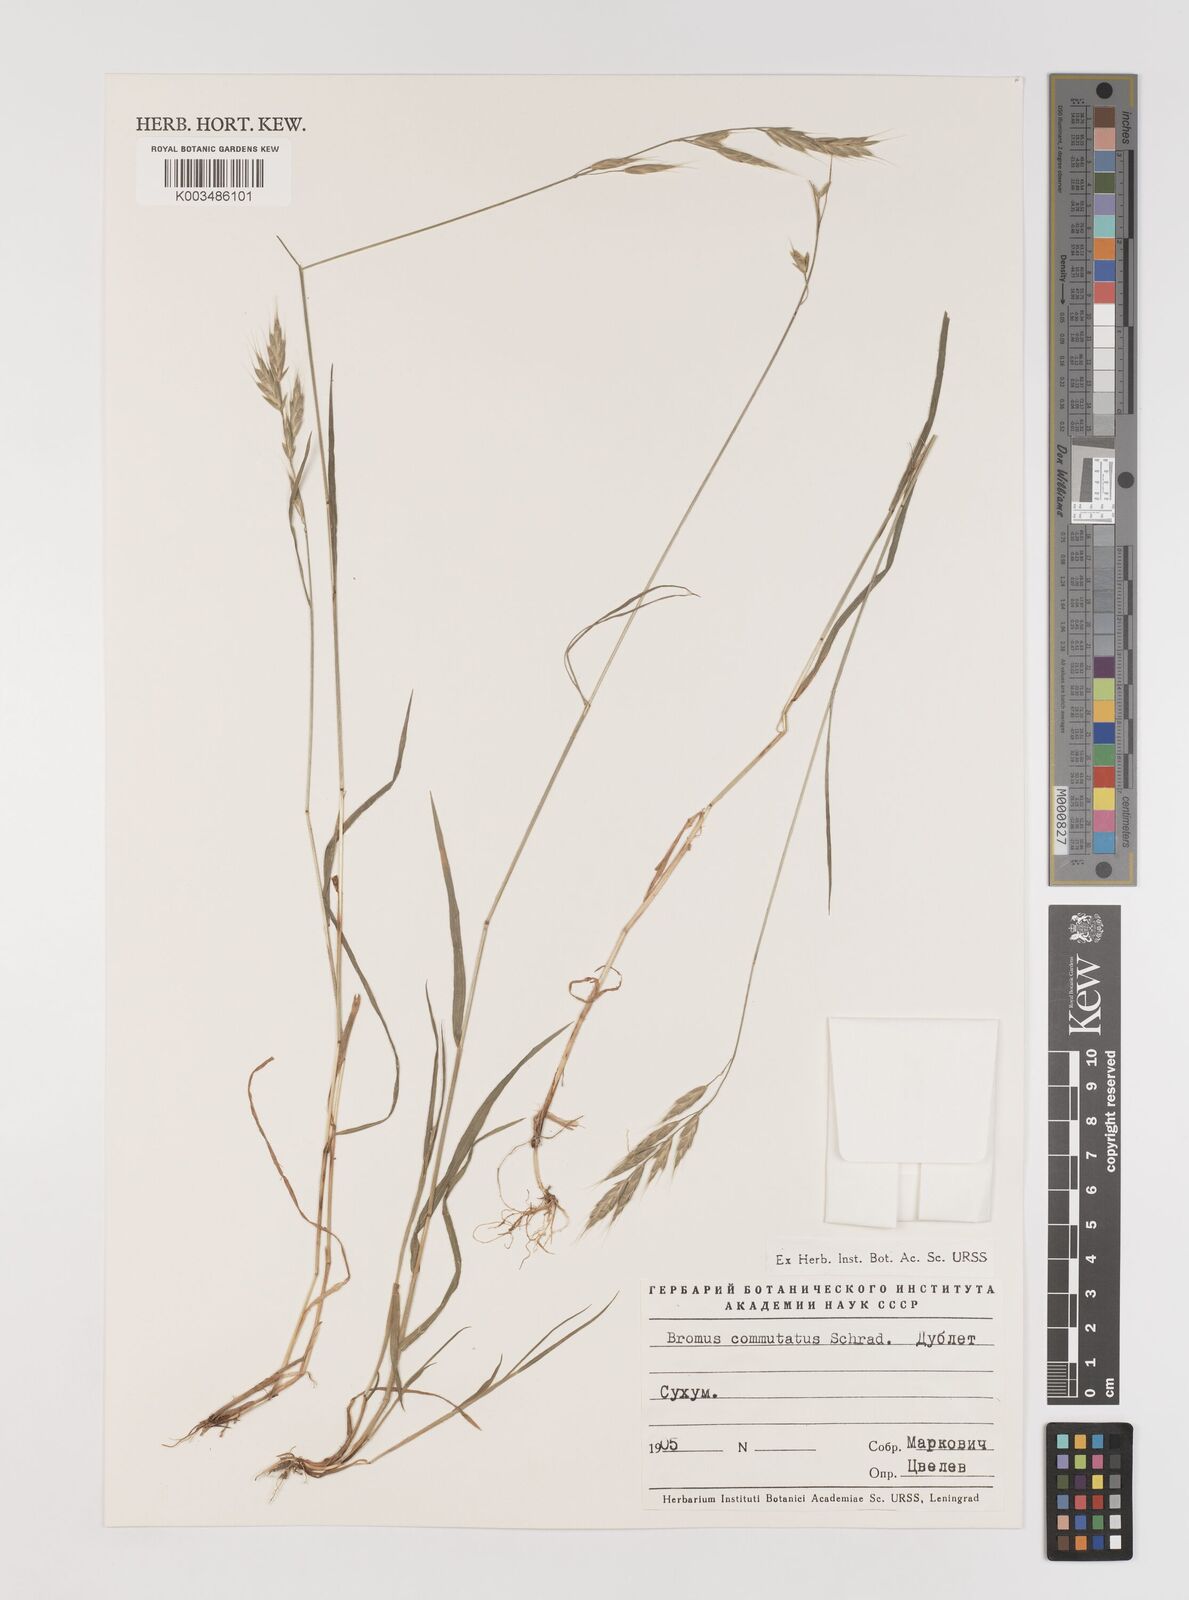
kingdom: Plantae
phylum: Tracheophyta
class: Liliopsida
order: Poales
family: Poaceae
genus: Bromus
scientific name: Bromus racemosus
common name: Bald brome
